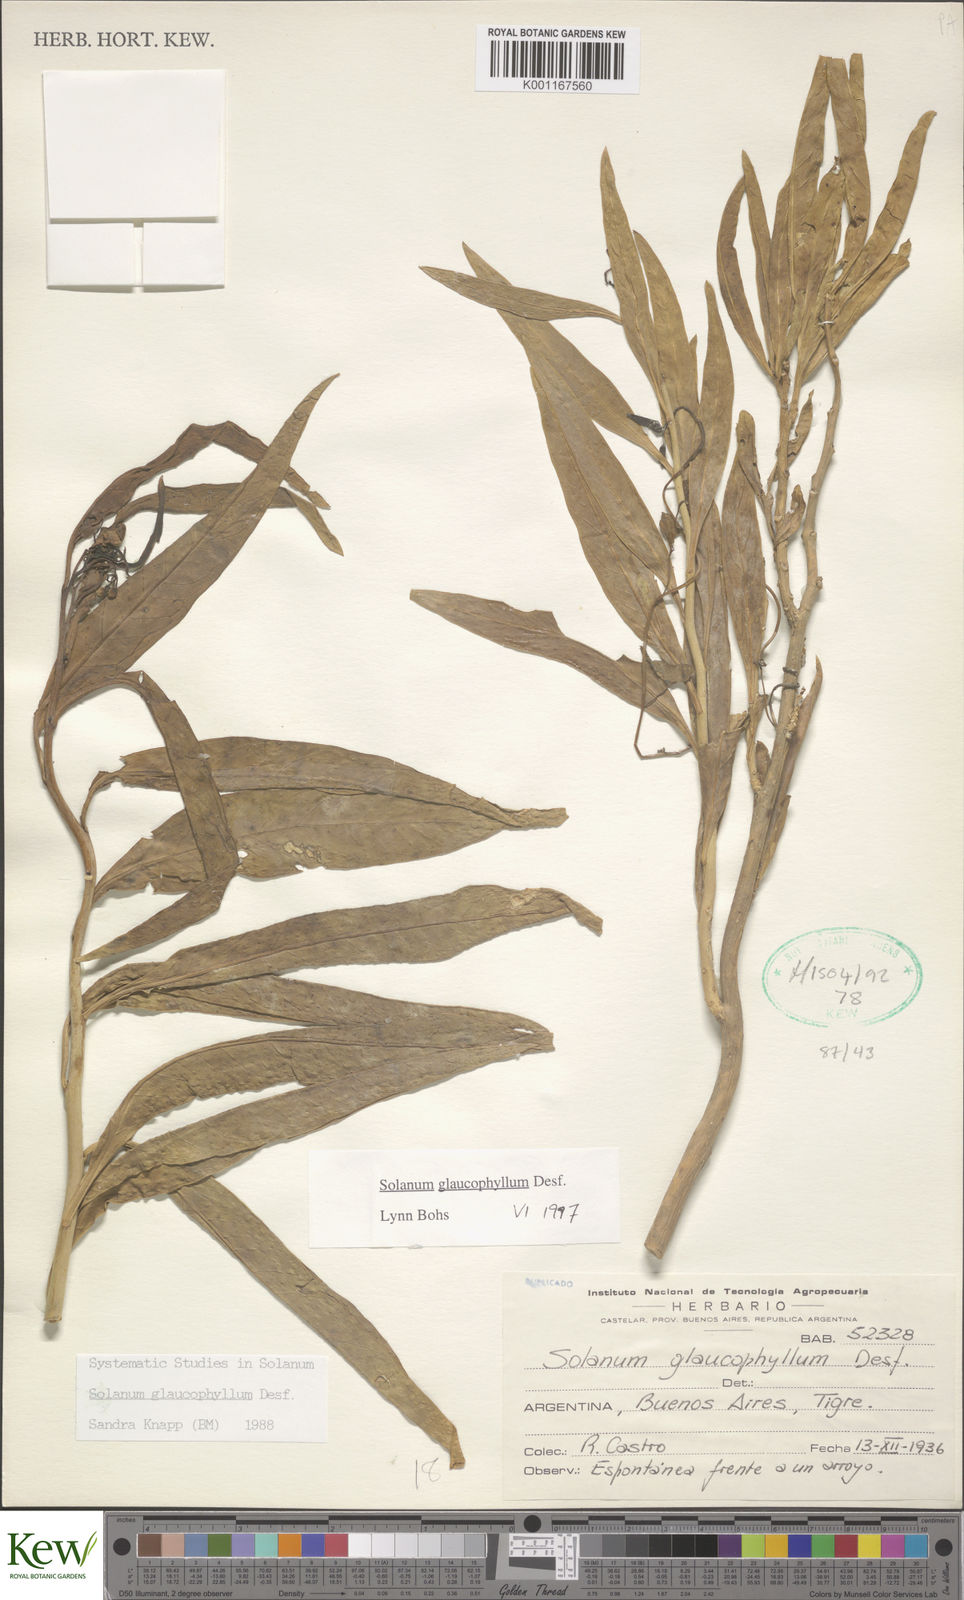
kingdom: Plantae
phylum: Tracheophyta
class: Magnoliopsida
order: Solanales
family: Solanaceae
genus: Solanum
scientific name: Solanum glaucophyllum
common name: Waxyleaf nightshade
